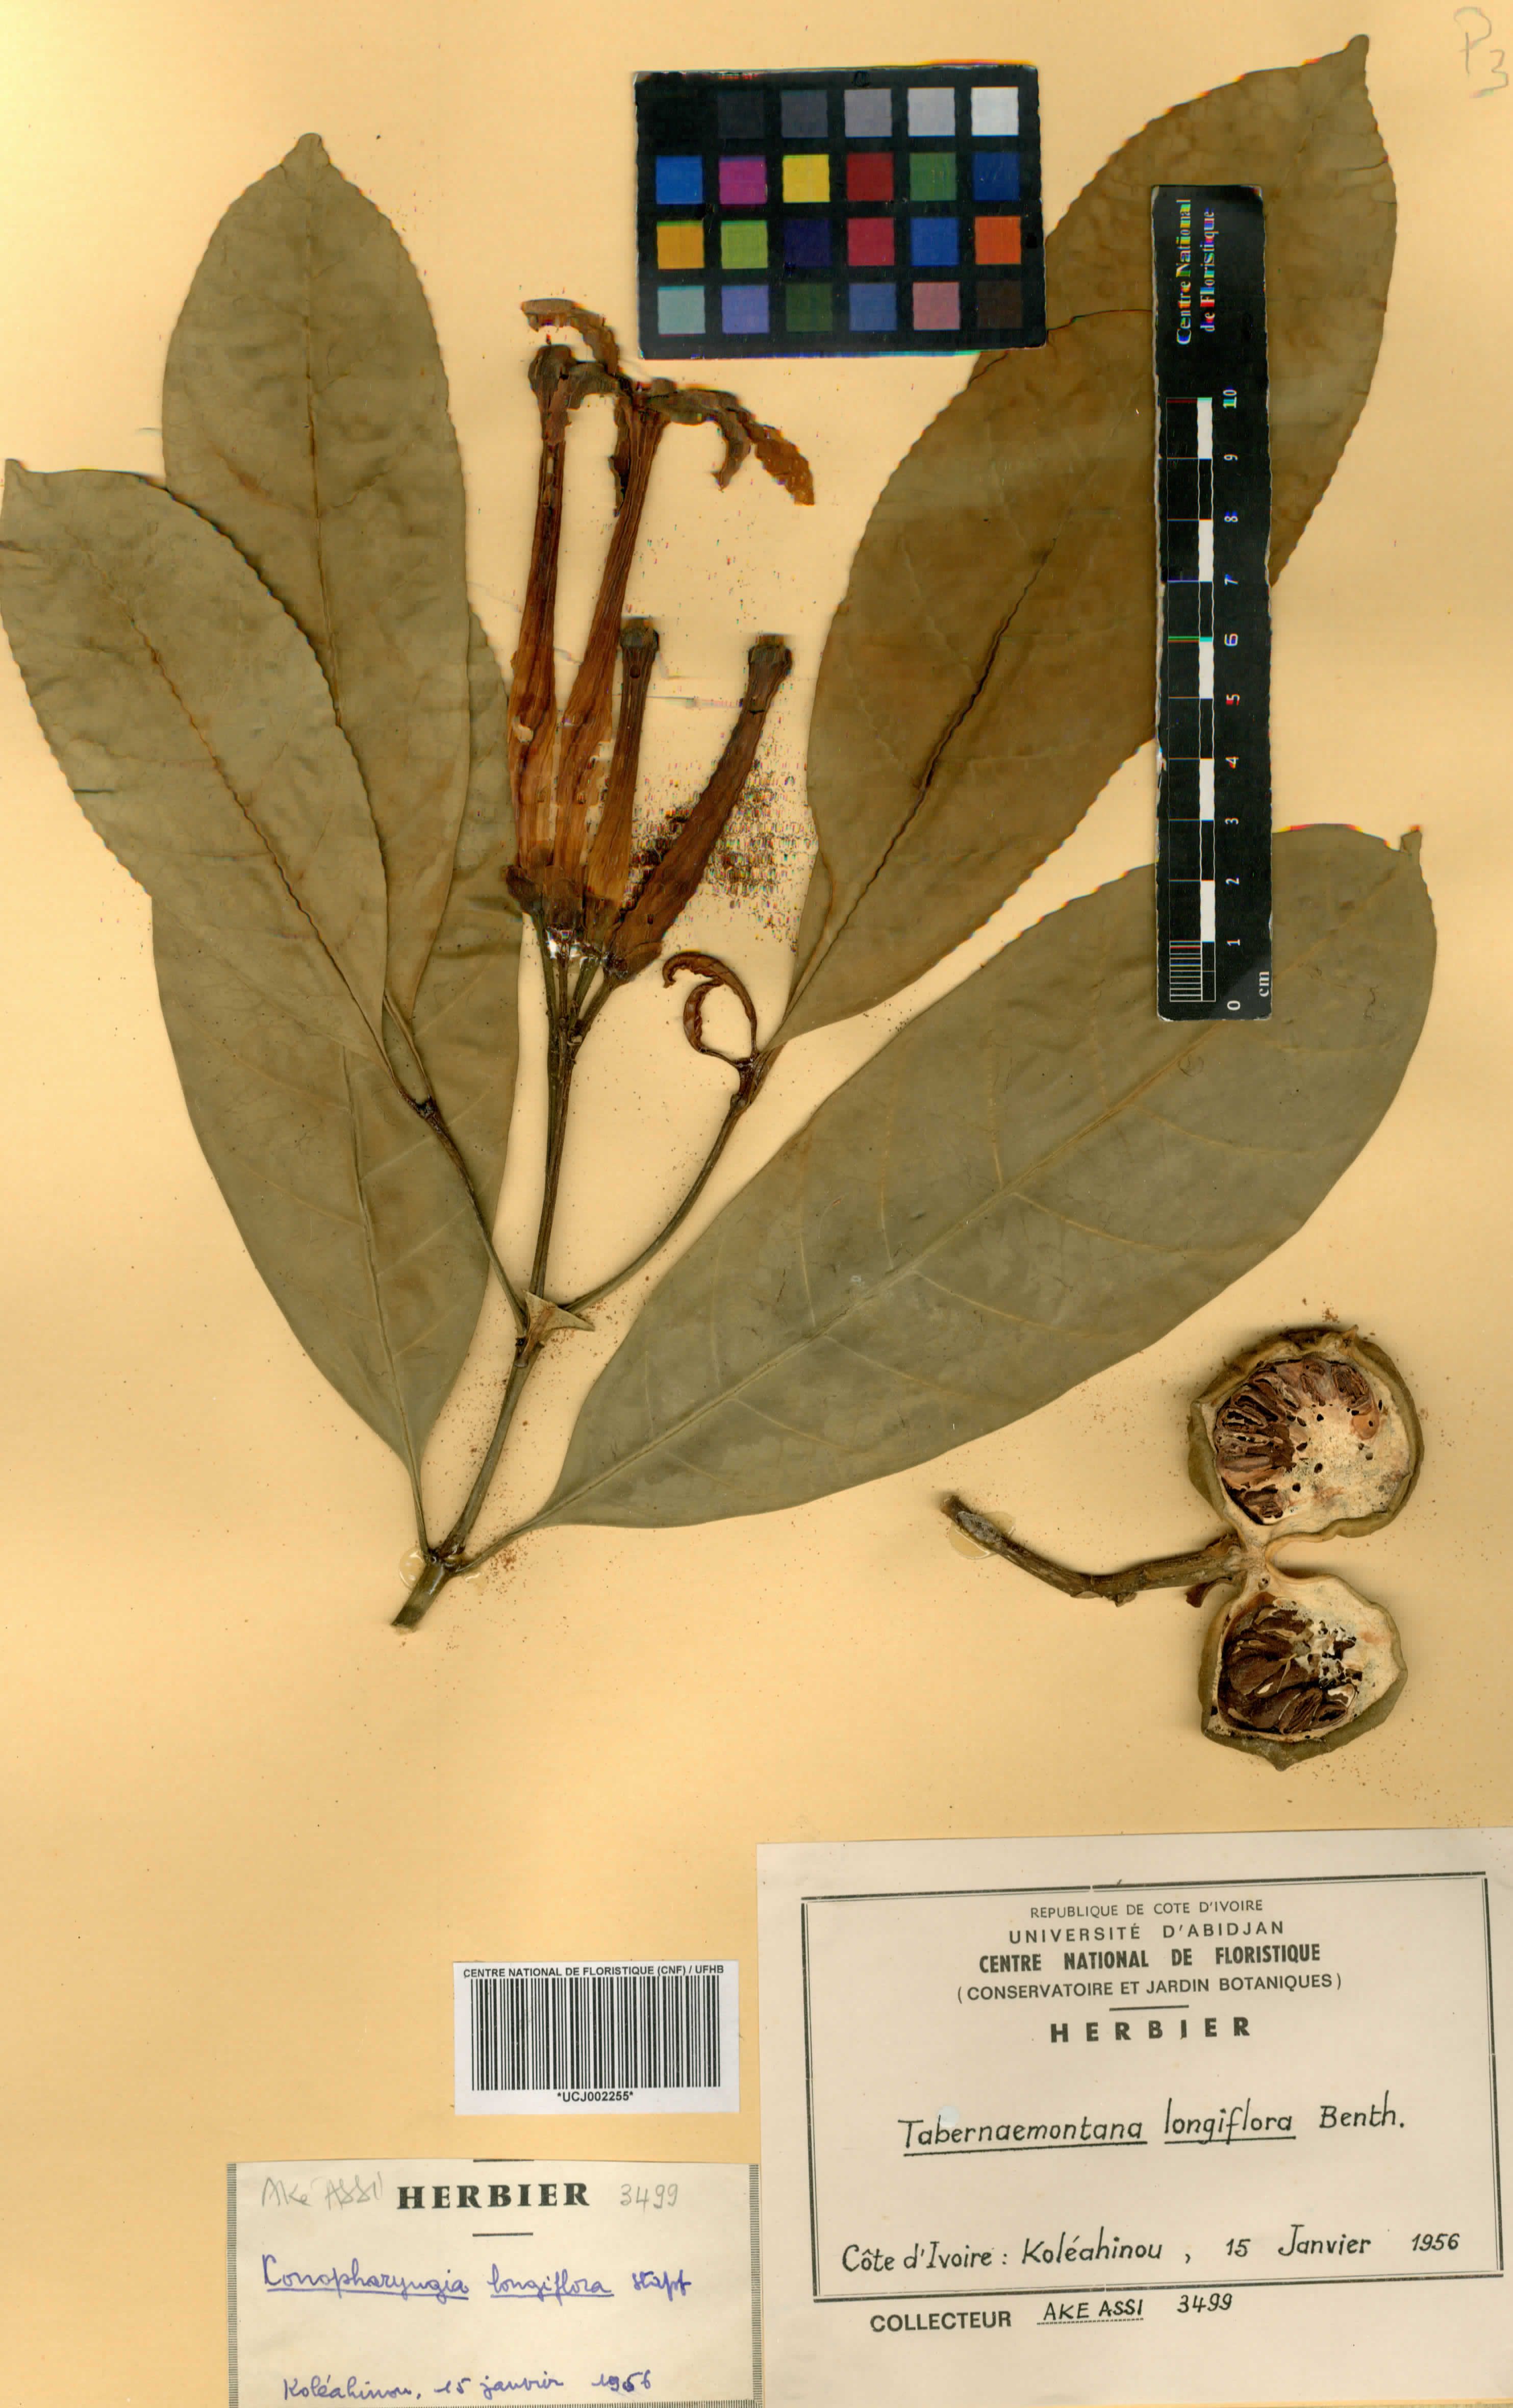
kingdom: Plantae
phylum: Tracheophyta
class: Magnoliopsida
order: Gentianales
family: Apocynaceae
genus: Tabernaemontana
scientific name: Tabernaemontana africana
